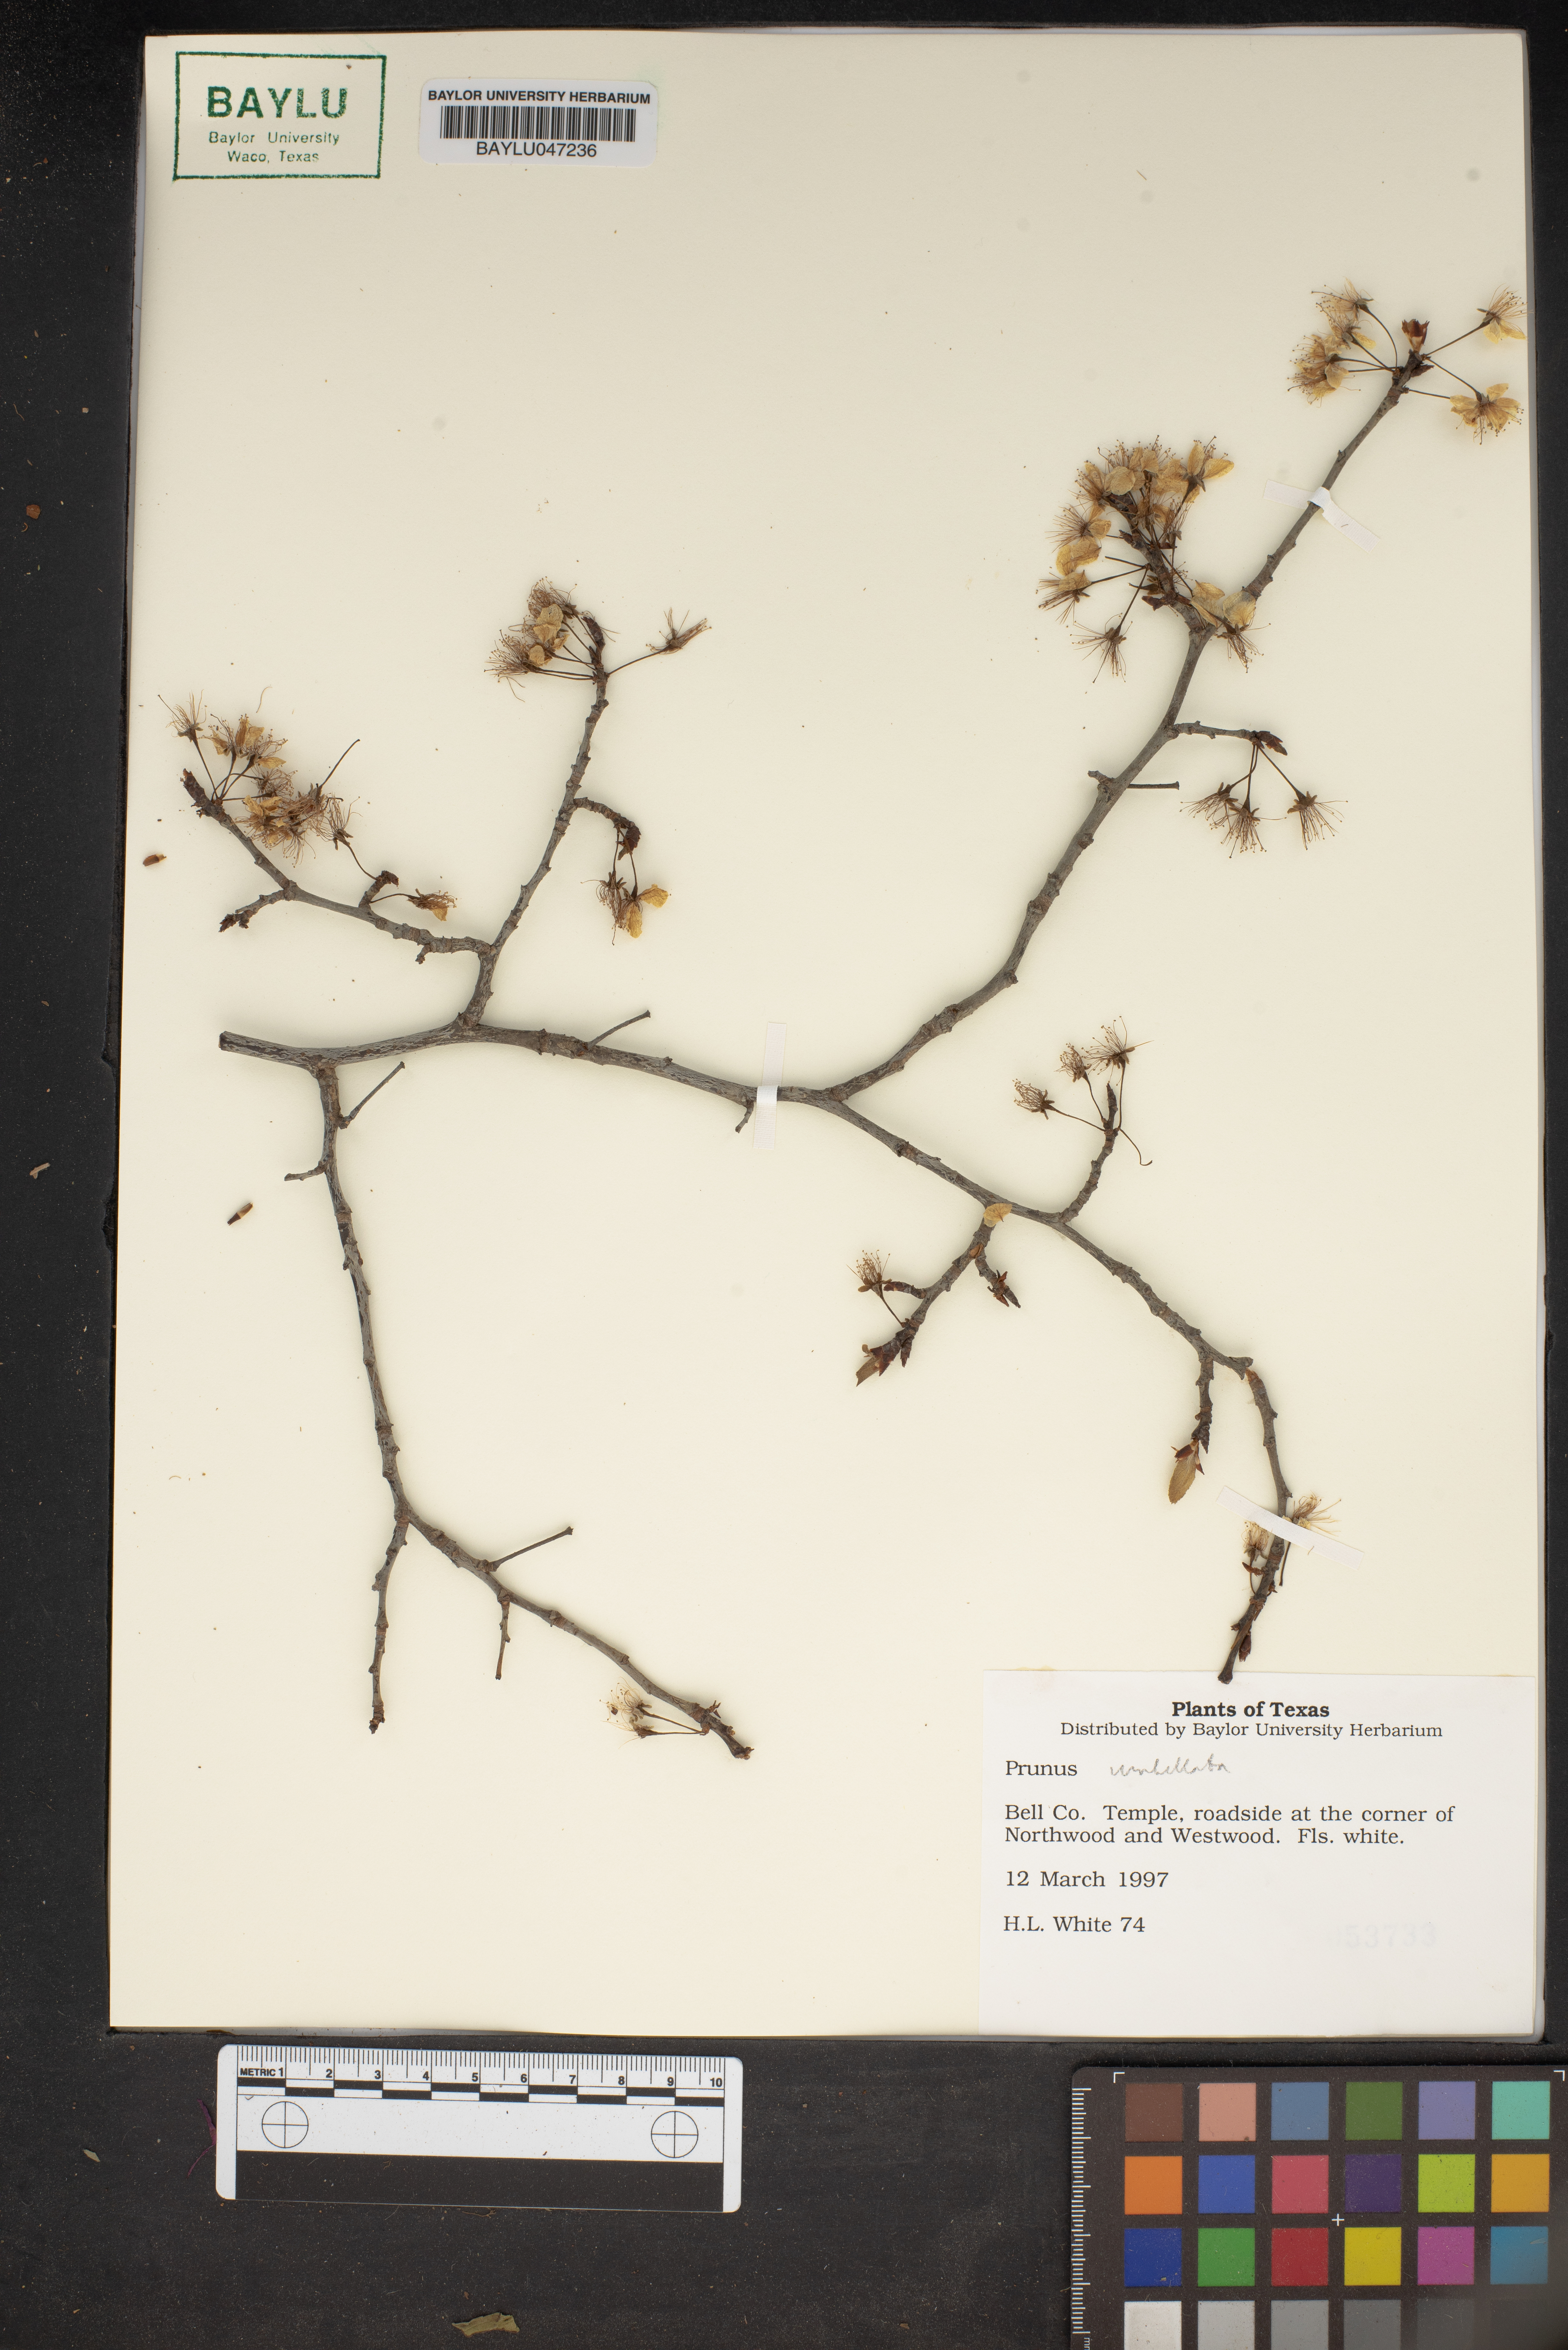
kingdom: Plantae
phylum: Tracheophyta
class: Magnoliopsida
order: Rosales
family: Rosaceae
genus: Prunus
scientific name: Prunus umbellata
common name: Allegheny plum
